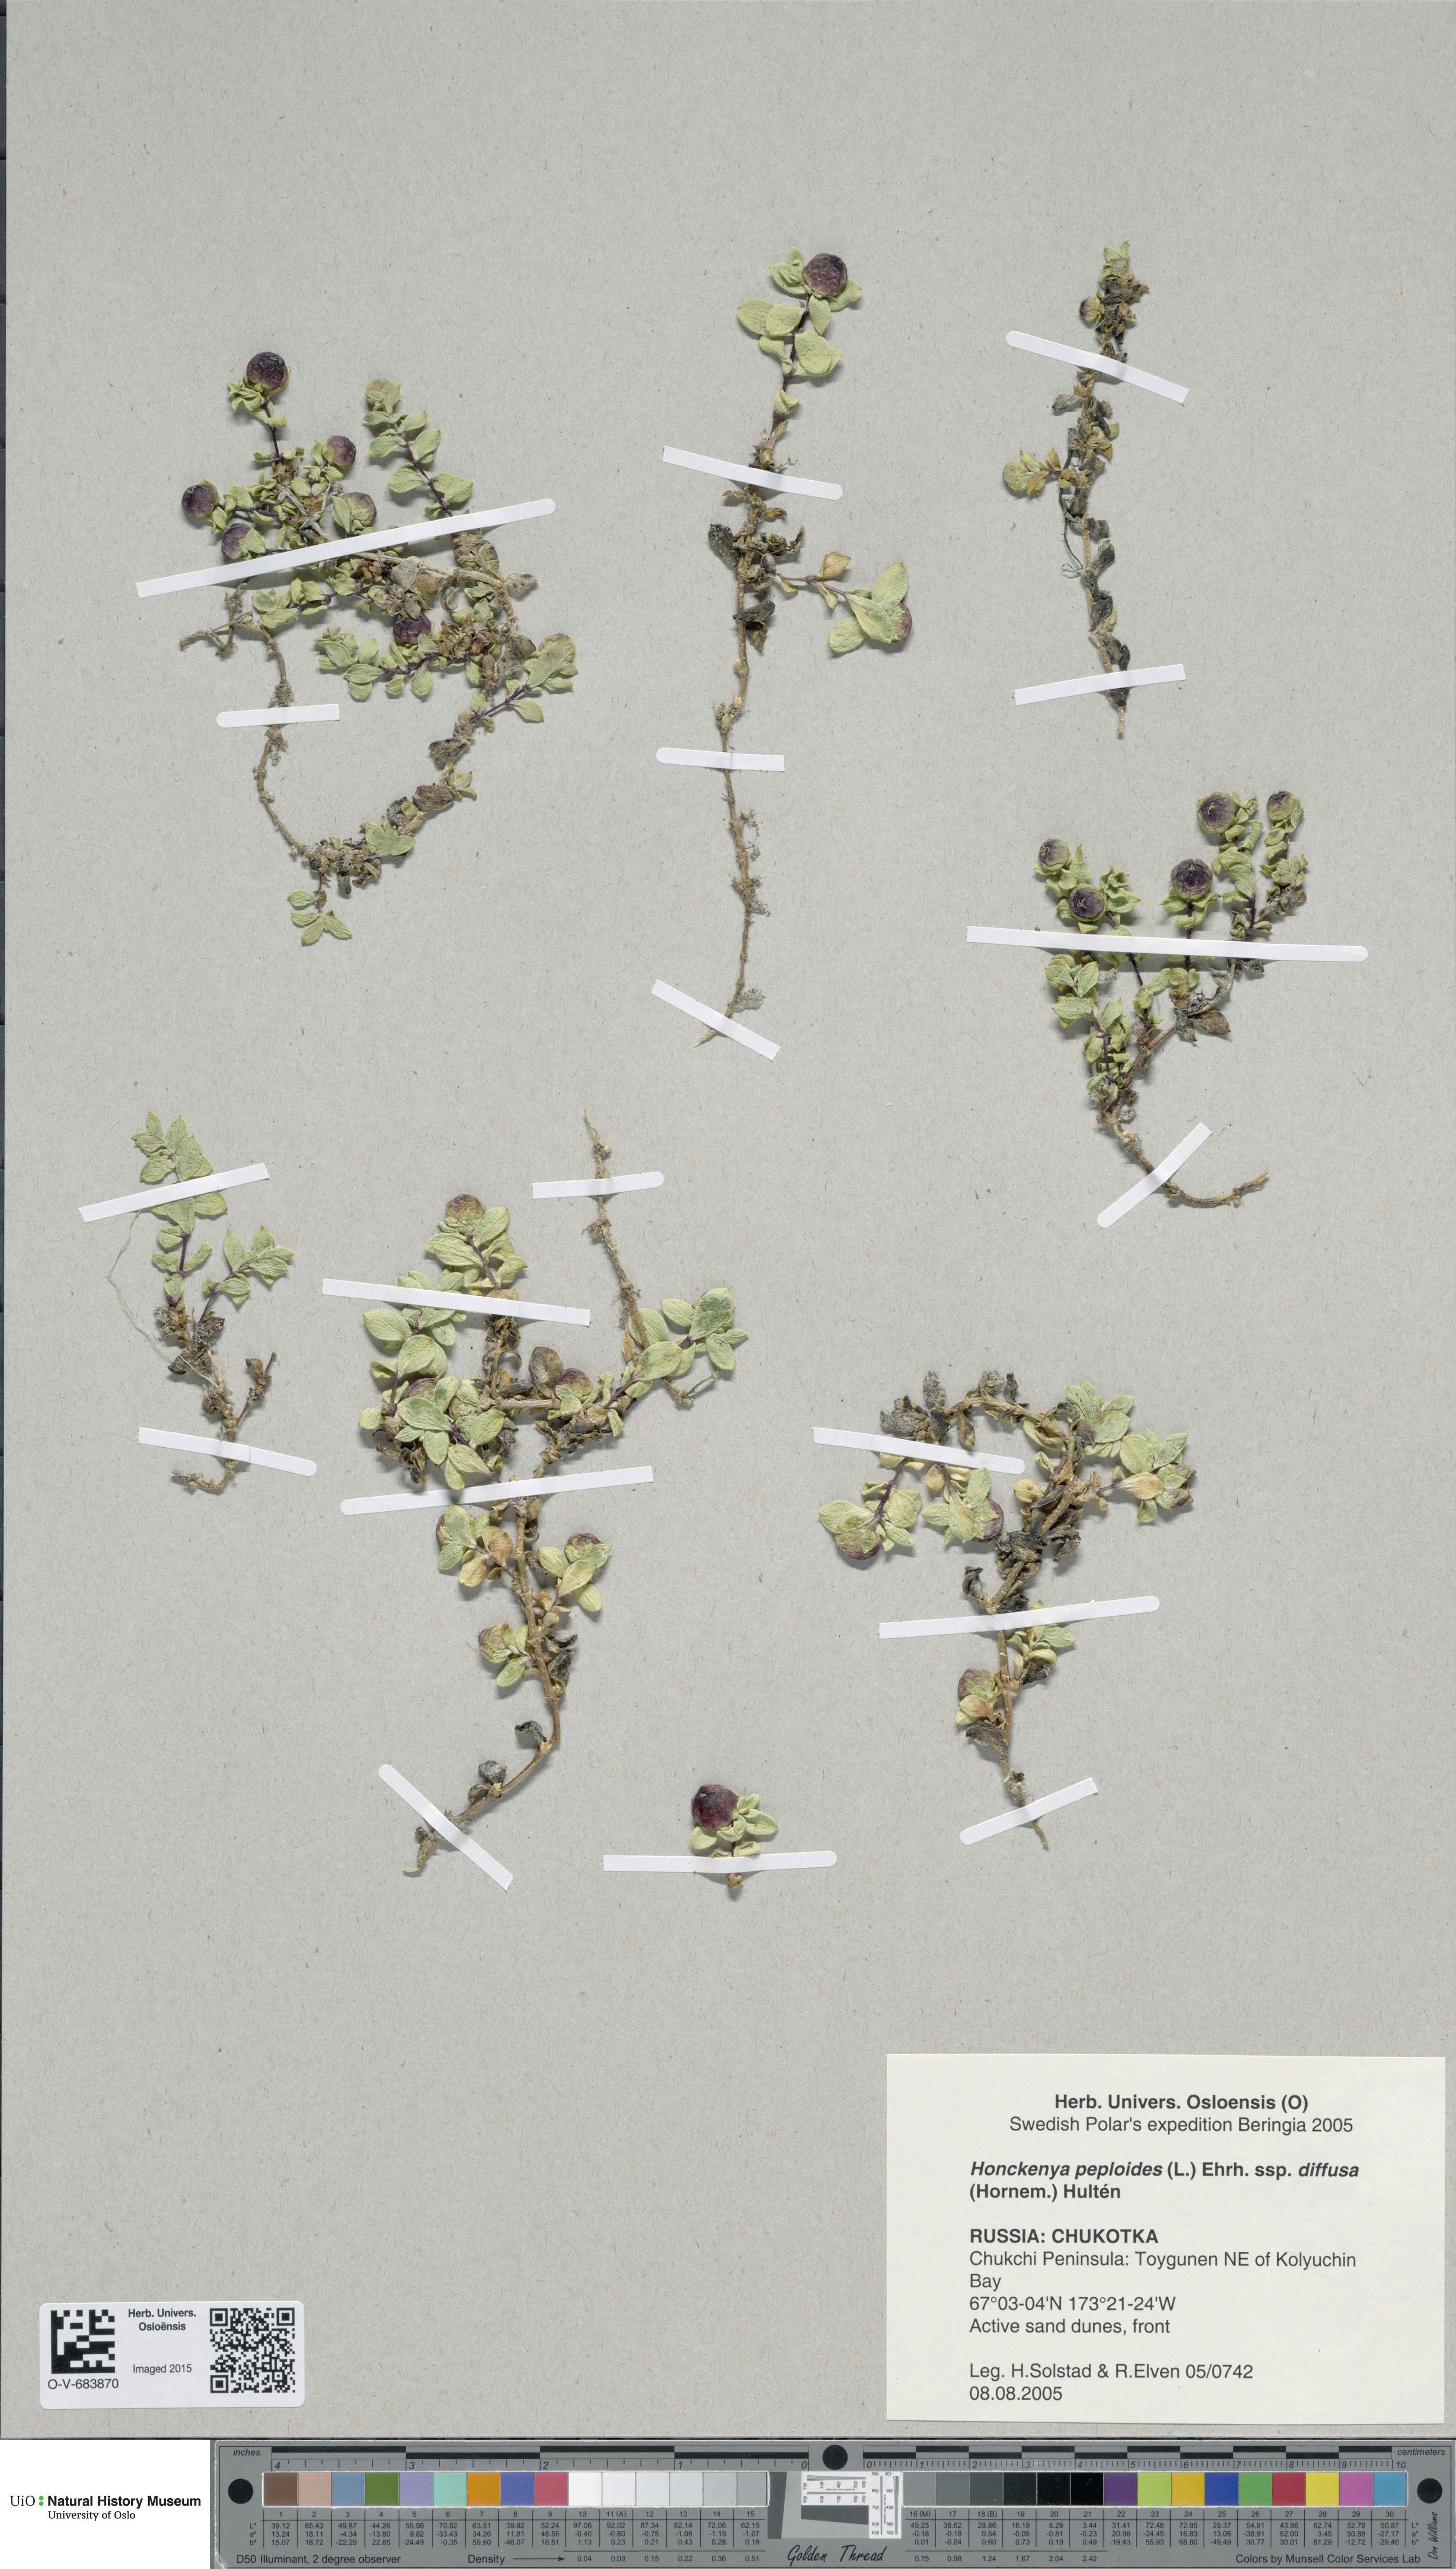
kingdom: Plantae
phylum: Tracheophyta
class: Magnoliopsida
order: Caryophyllales
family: Caryophyllaceae
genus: Honckenya
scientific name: Honckenya peploides
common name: Sea sandwort
